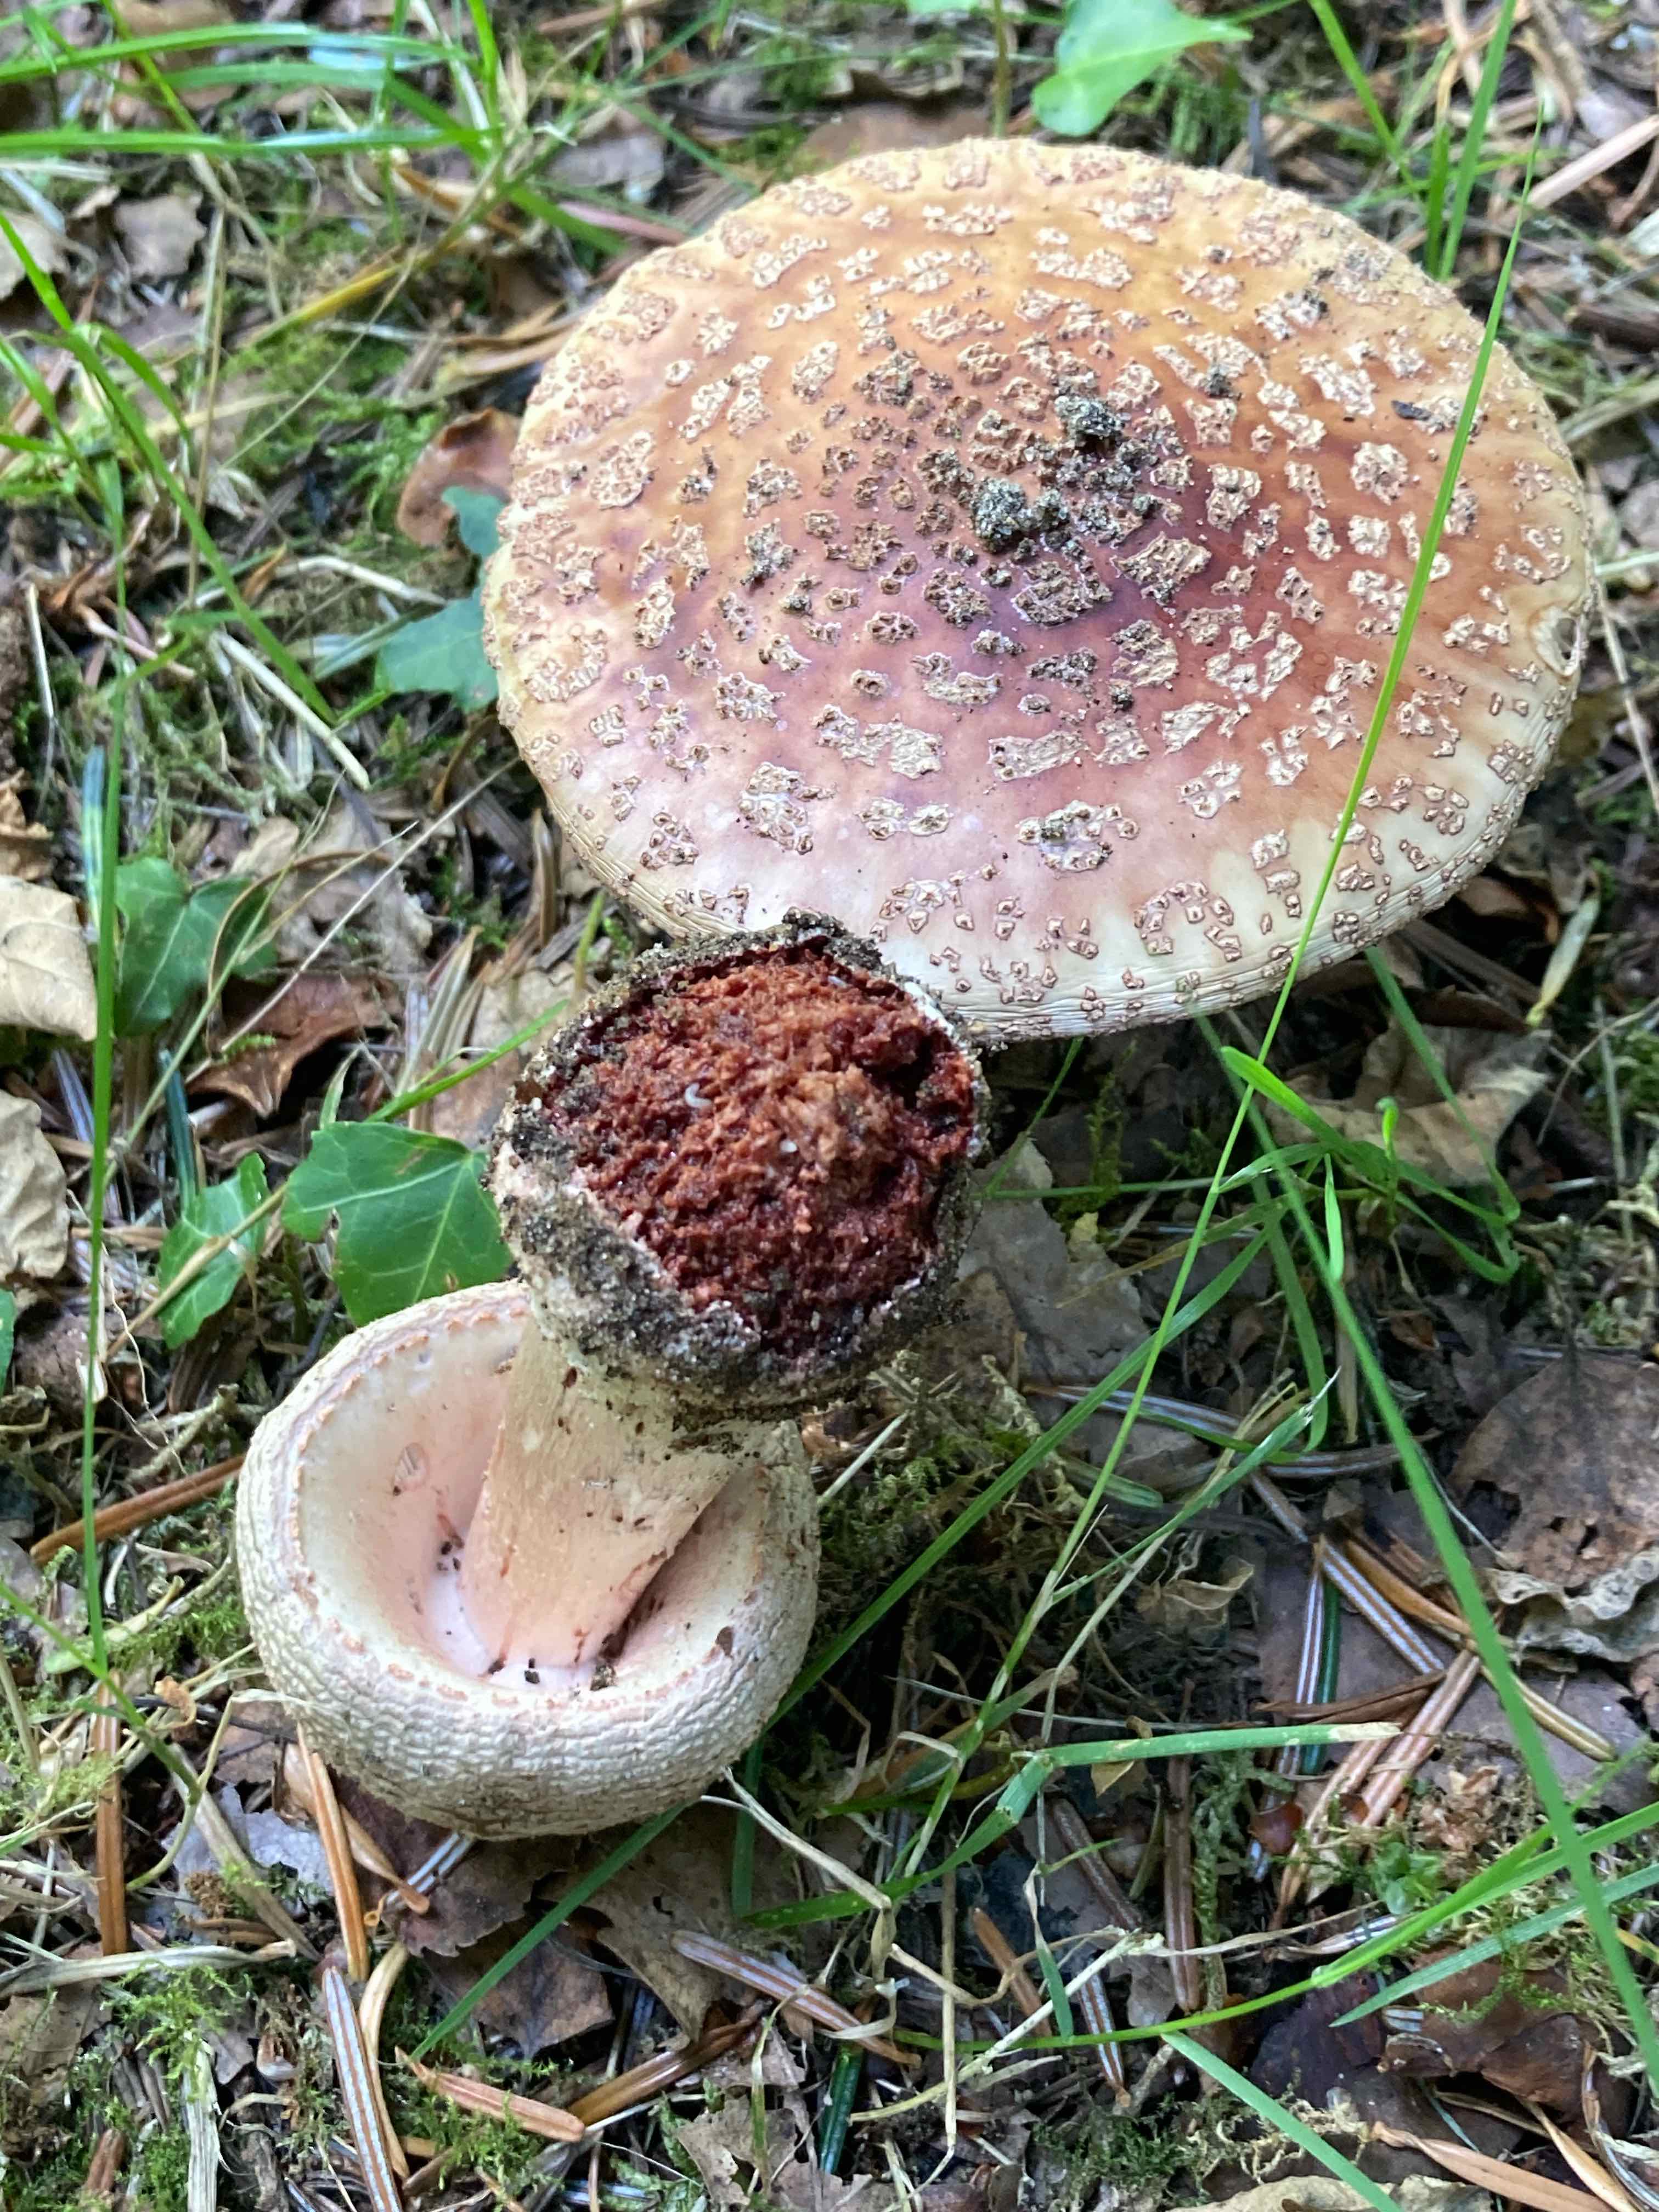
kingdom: Fungi
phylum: Basidiomycota
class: Agaricomycetes
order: Agaricales
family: Amanitaceae
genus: Amanita
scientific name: Amanita rubescens
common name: rødmende fluesvamp
